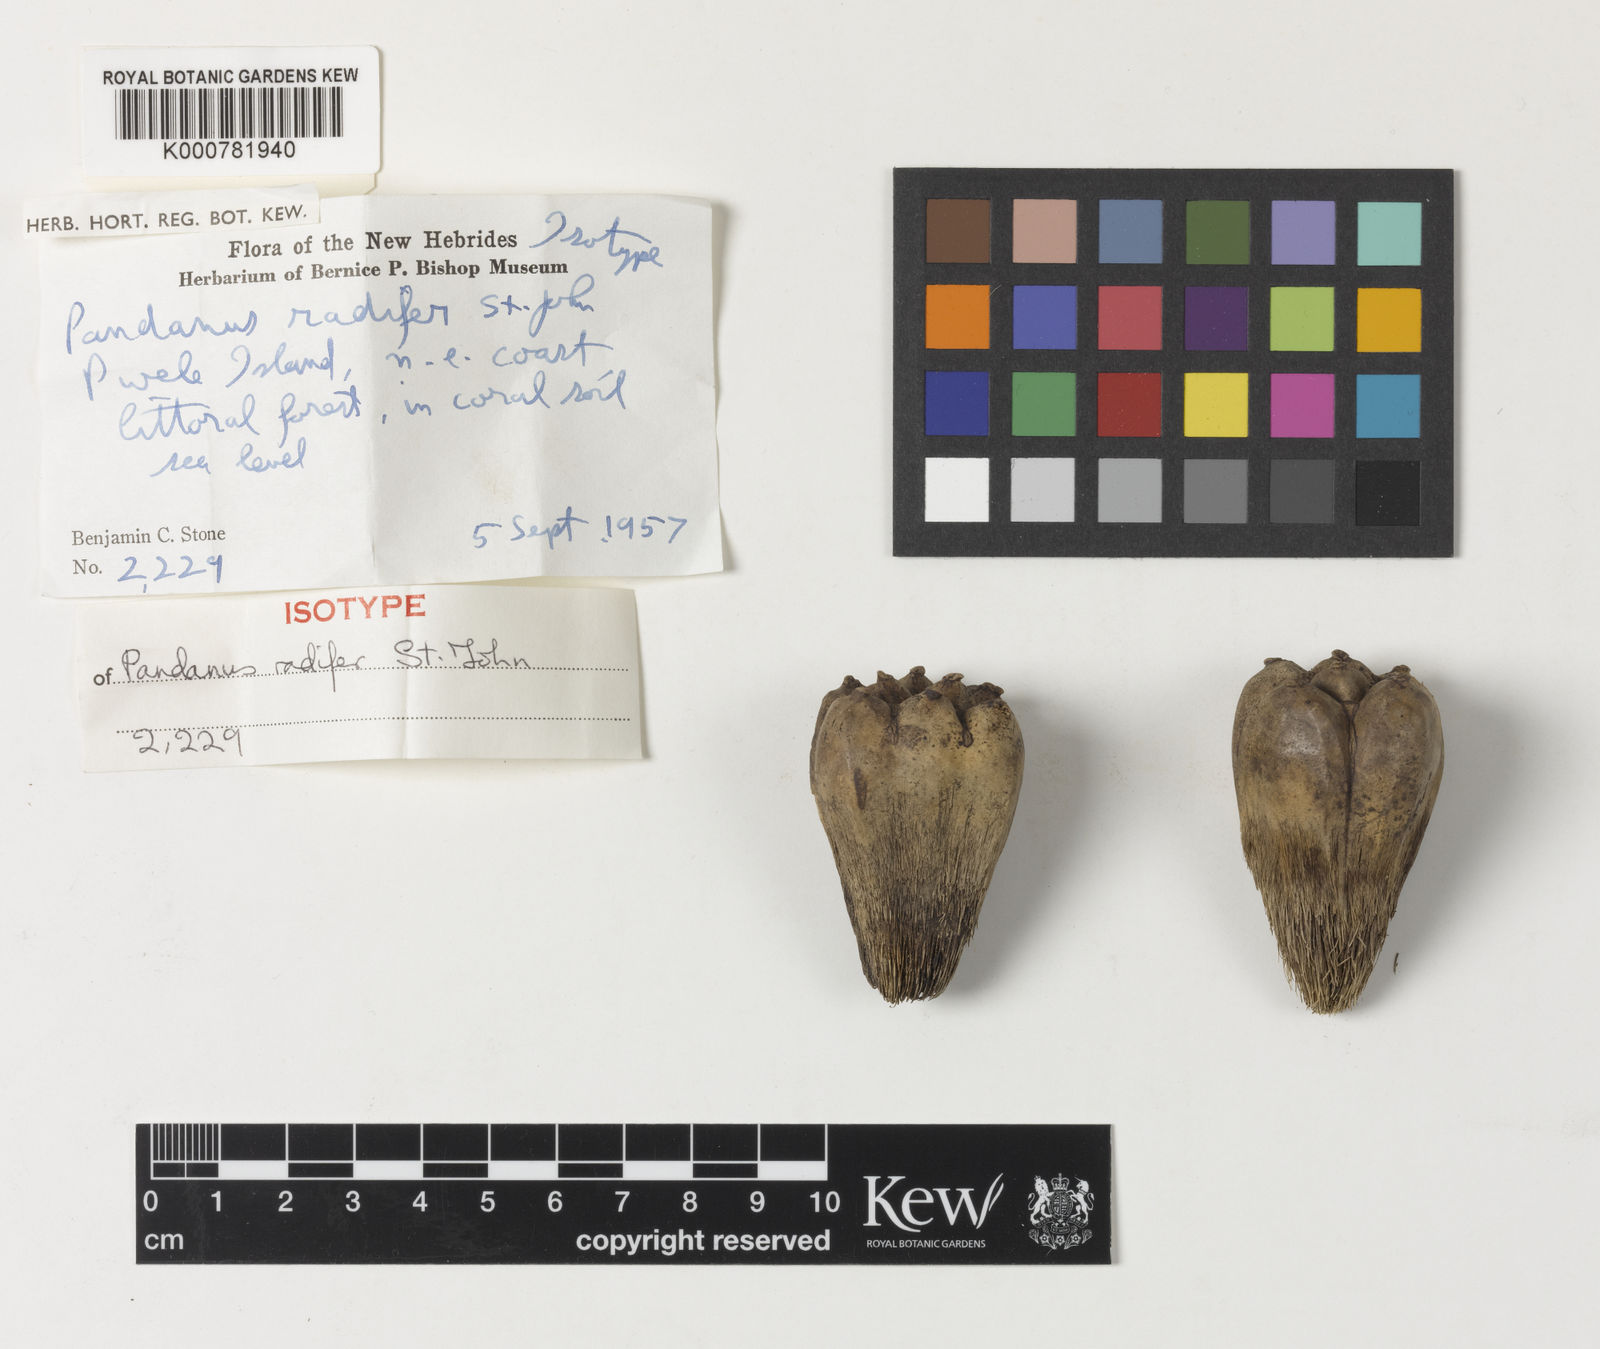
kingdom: Plantae
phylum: Tracheophyta
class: Liliopsida
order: Pandanales
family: Pandanaceae
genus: Pandanus
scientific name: Pandanus radifer
